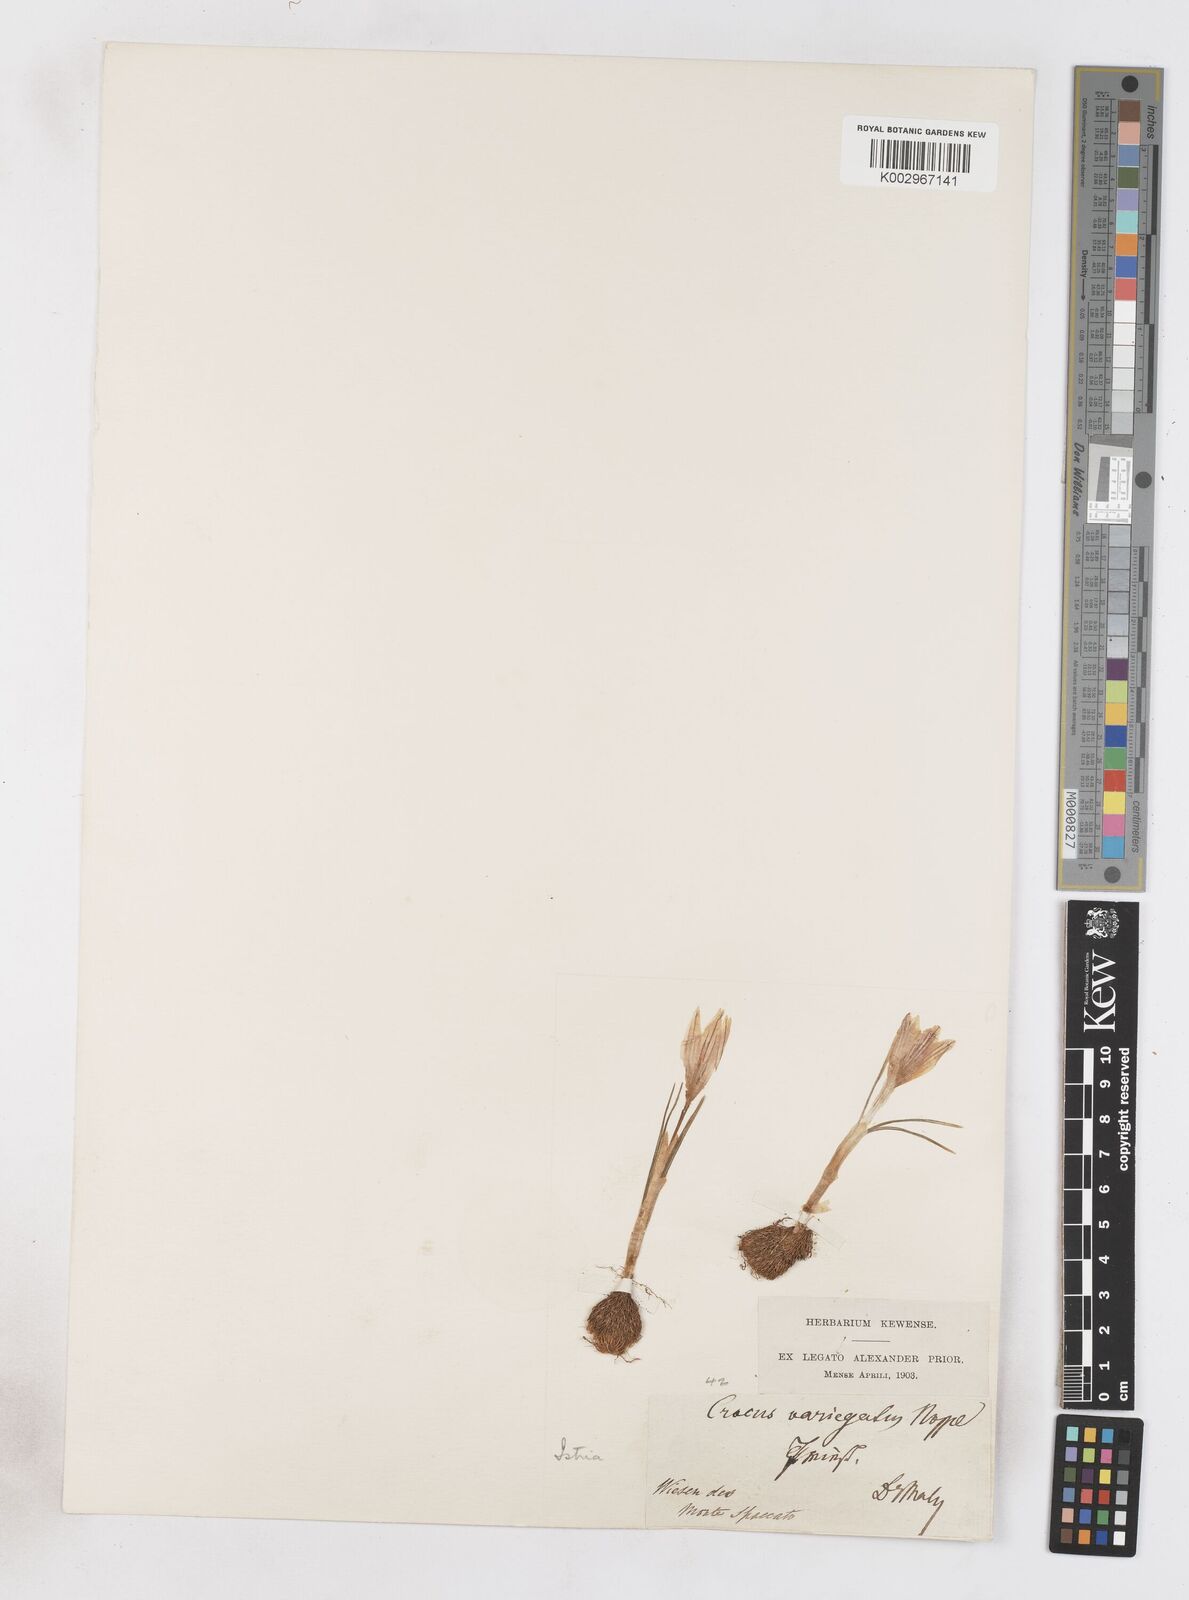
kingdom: Plantae
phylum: Tracheophyta
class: Liliopsida
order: Asparagales
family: Iridaceae
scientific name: Iridaceae
